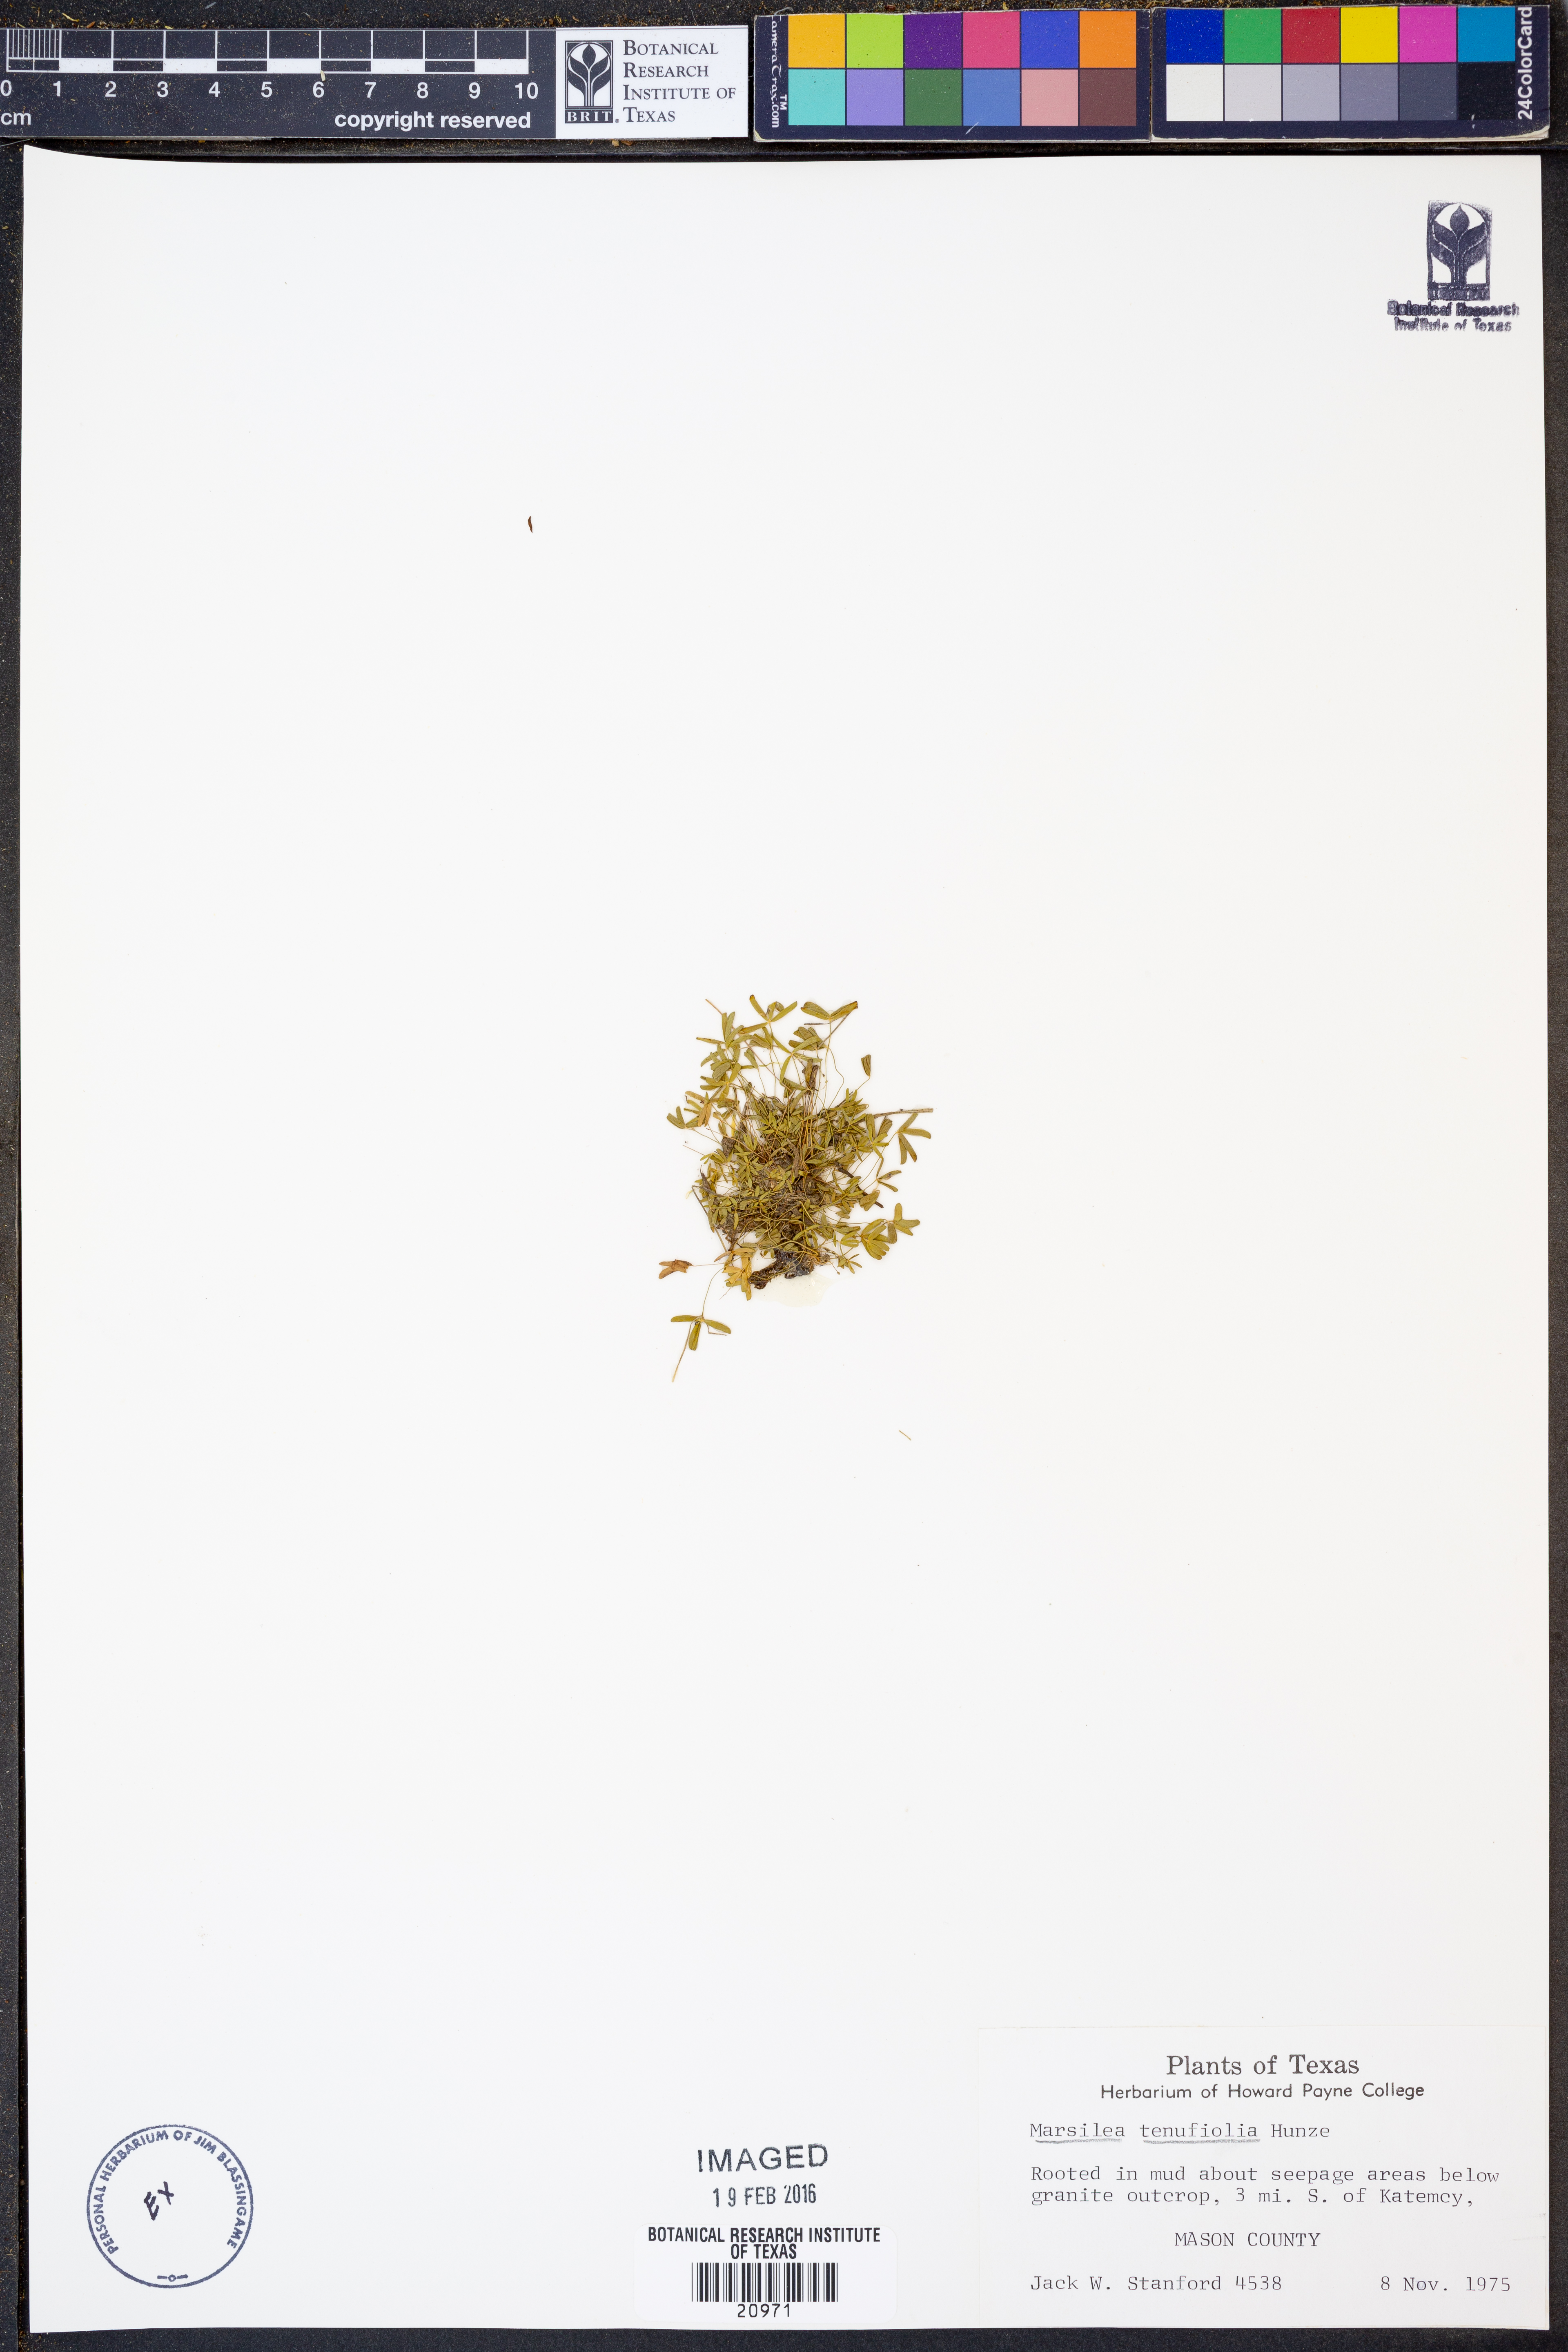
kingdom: Plantae
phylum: Tracheophyta
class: Polypodiopsida
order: Salviniales
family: Marsileaceae
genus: Marsilea
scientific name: Marsilea vestita
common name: Hooked-pepperwort
